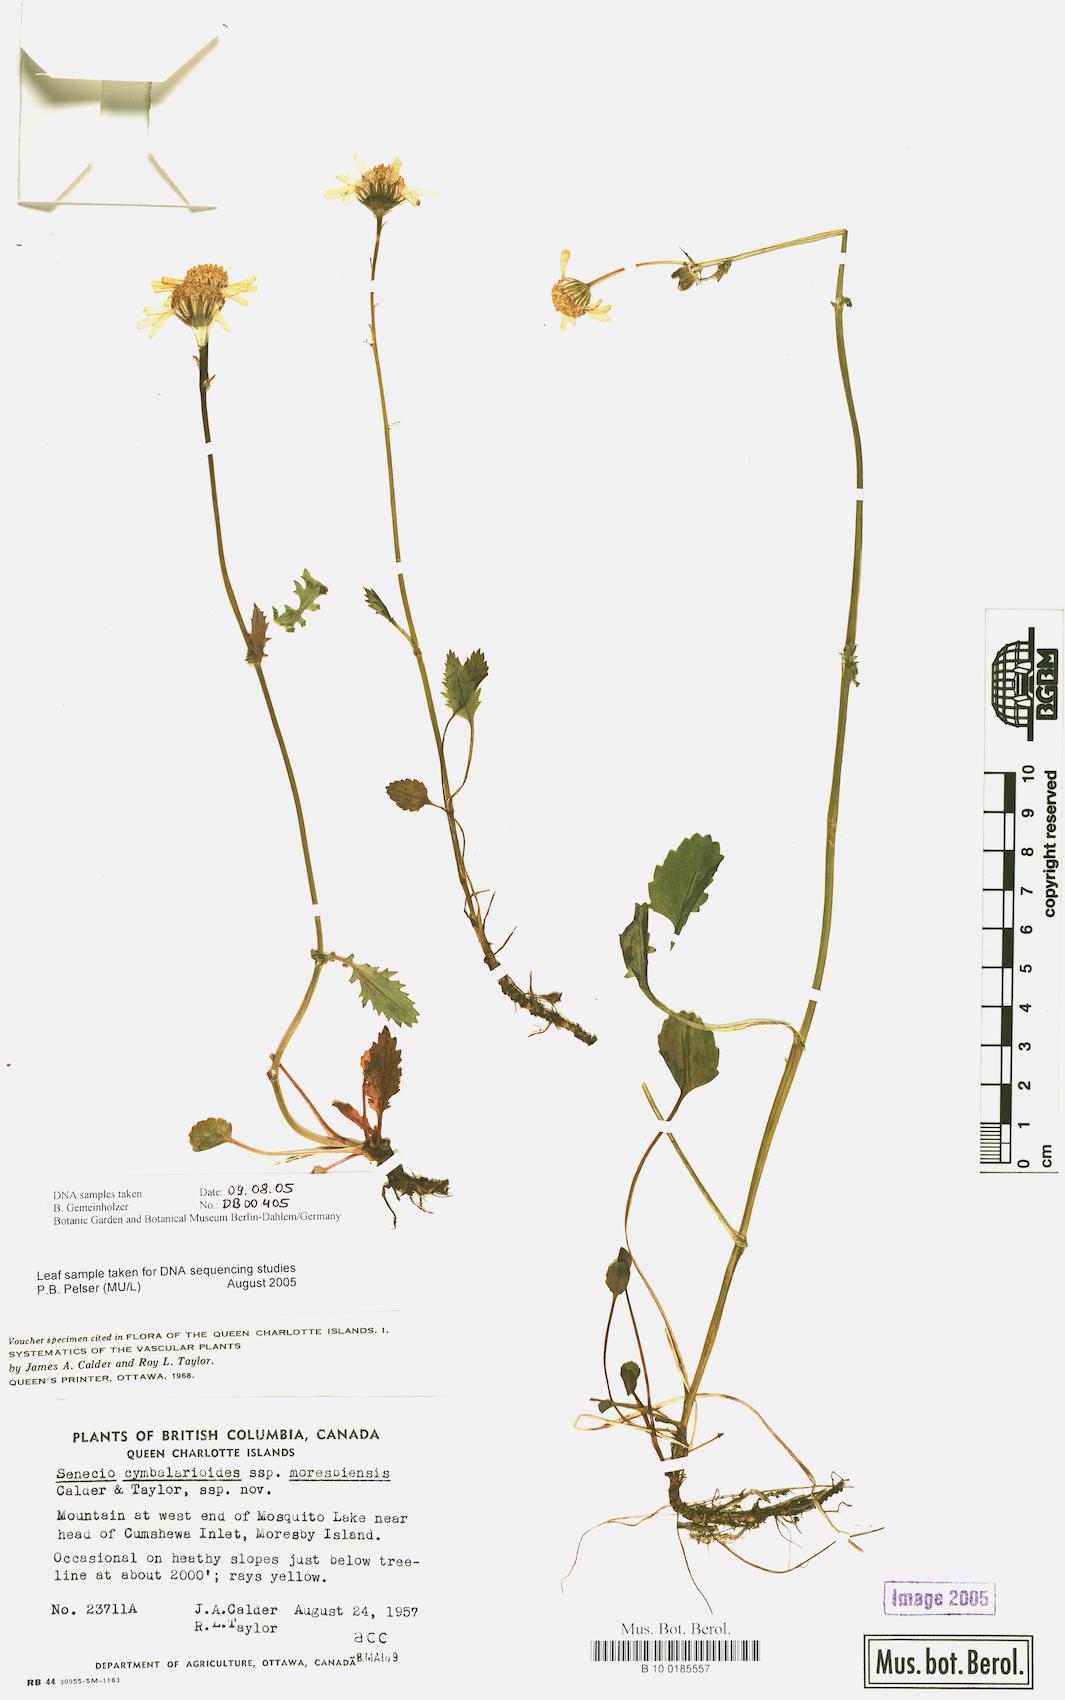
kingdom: Plantae
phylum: Tracheophyta
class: Magnoliopsida
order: Asterales
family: Asteraceae
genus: Packera
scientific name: Packera
